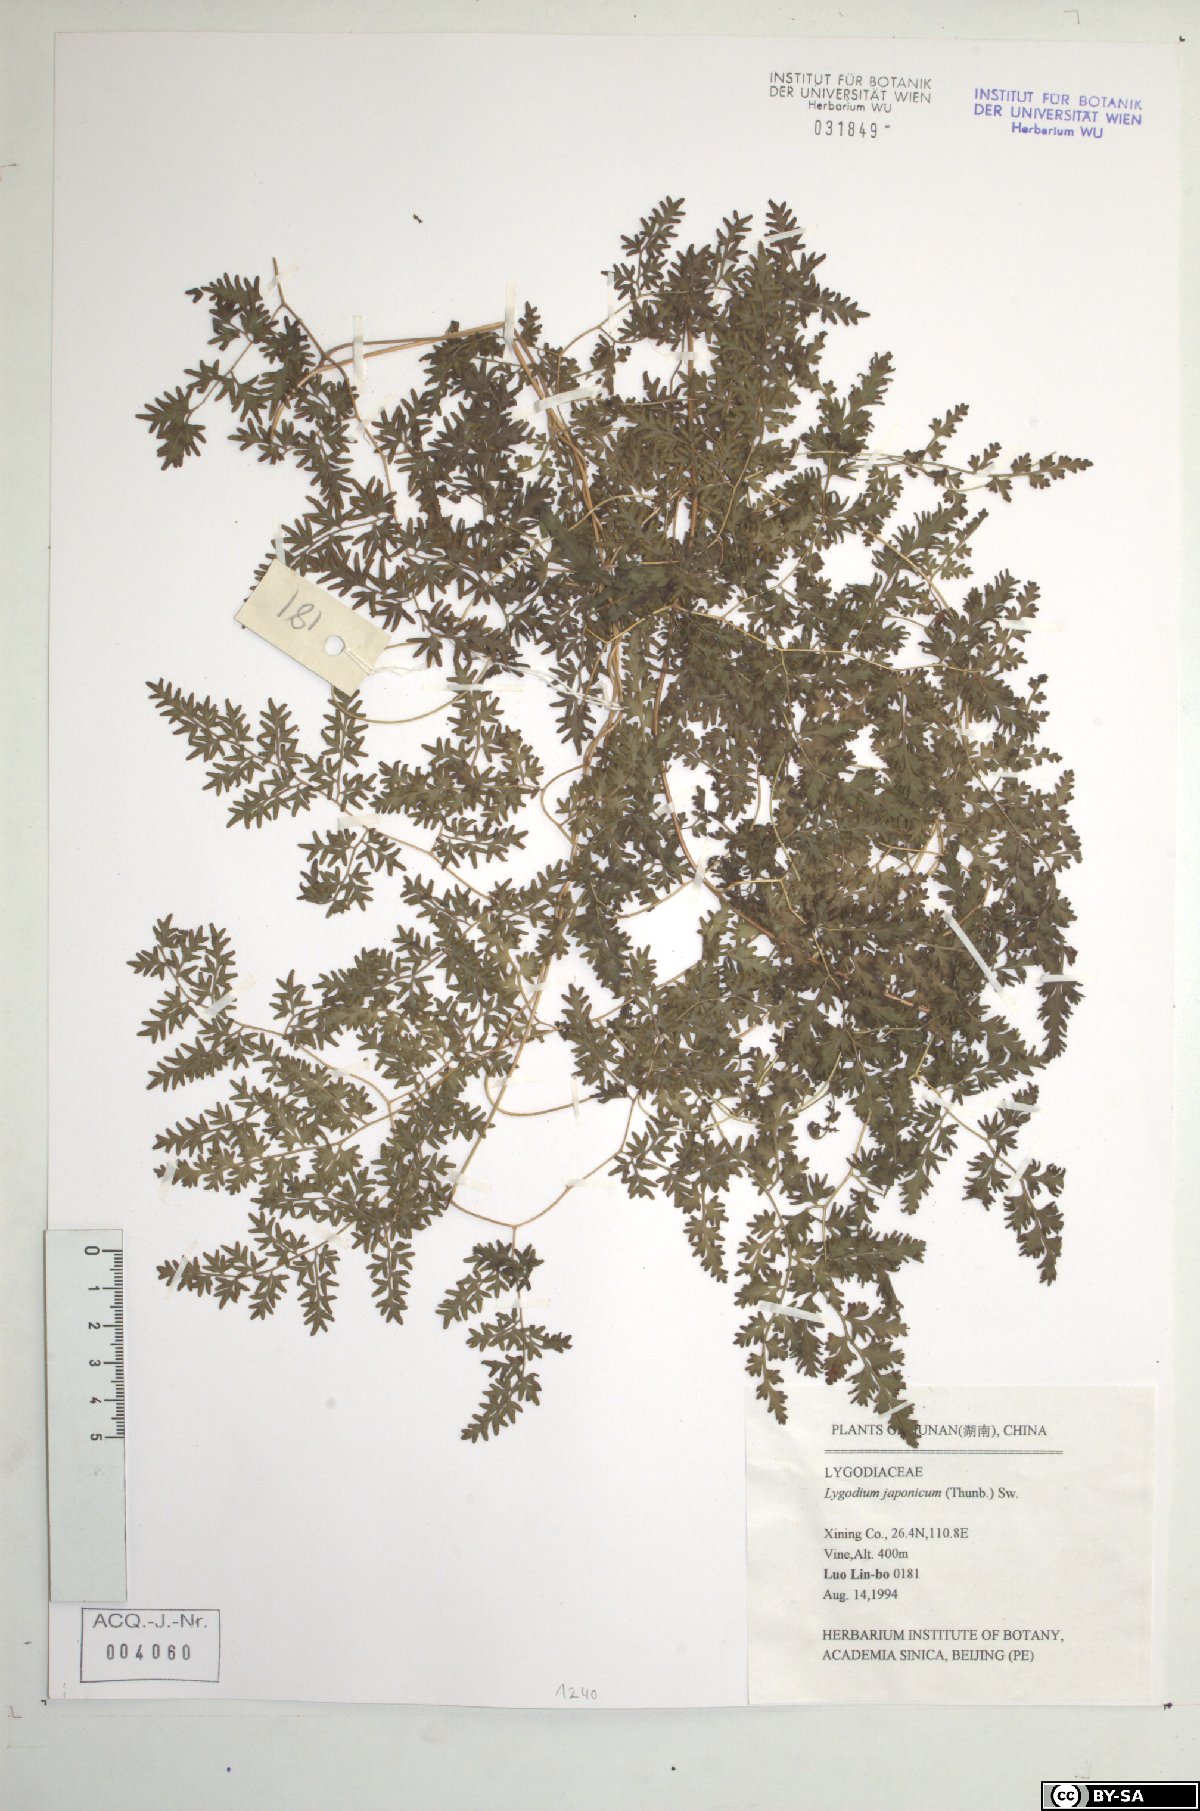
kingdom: Plantae
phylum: Tracheophyta
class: Polypodiopsida
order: Schizaeales
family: Lygodiaceae
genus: Lygodium
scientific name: Lygodium japonicum
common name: Japanese climbing fern
